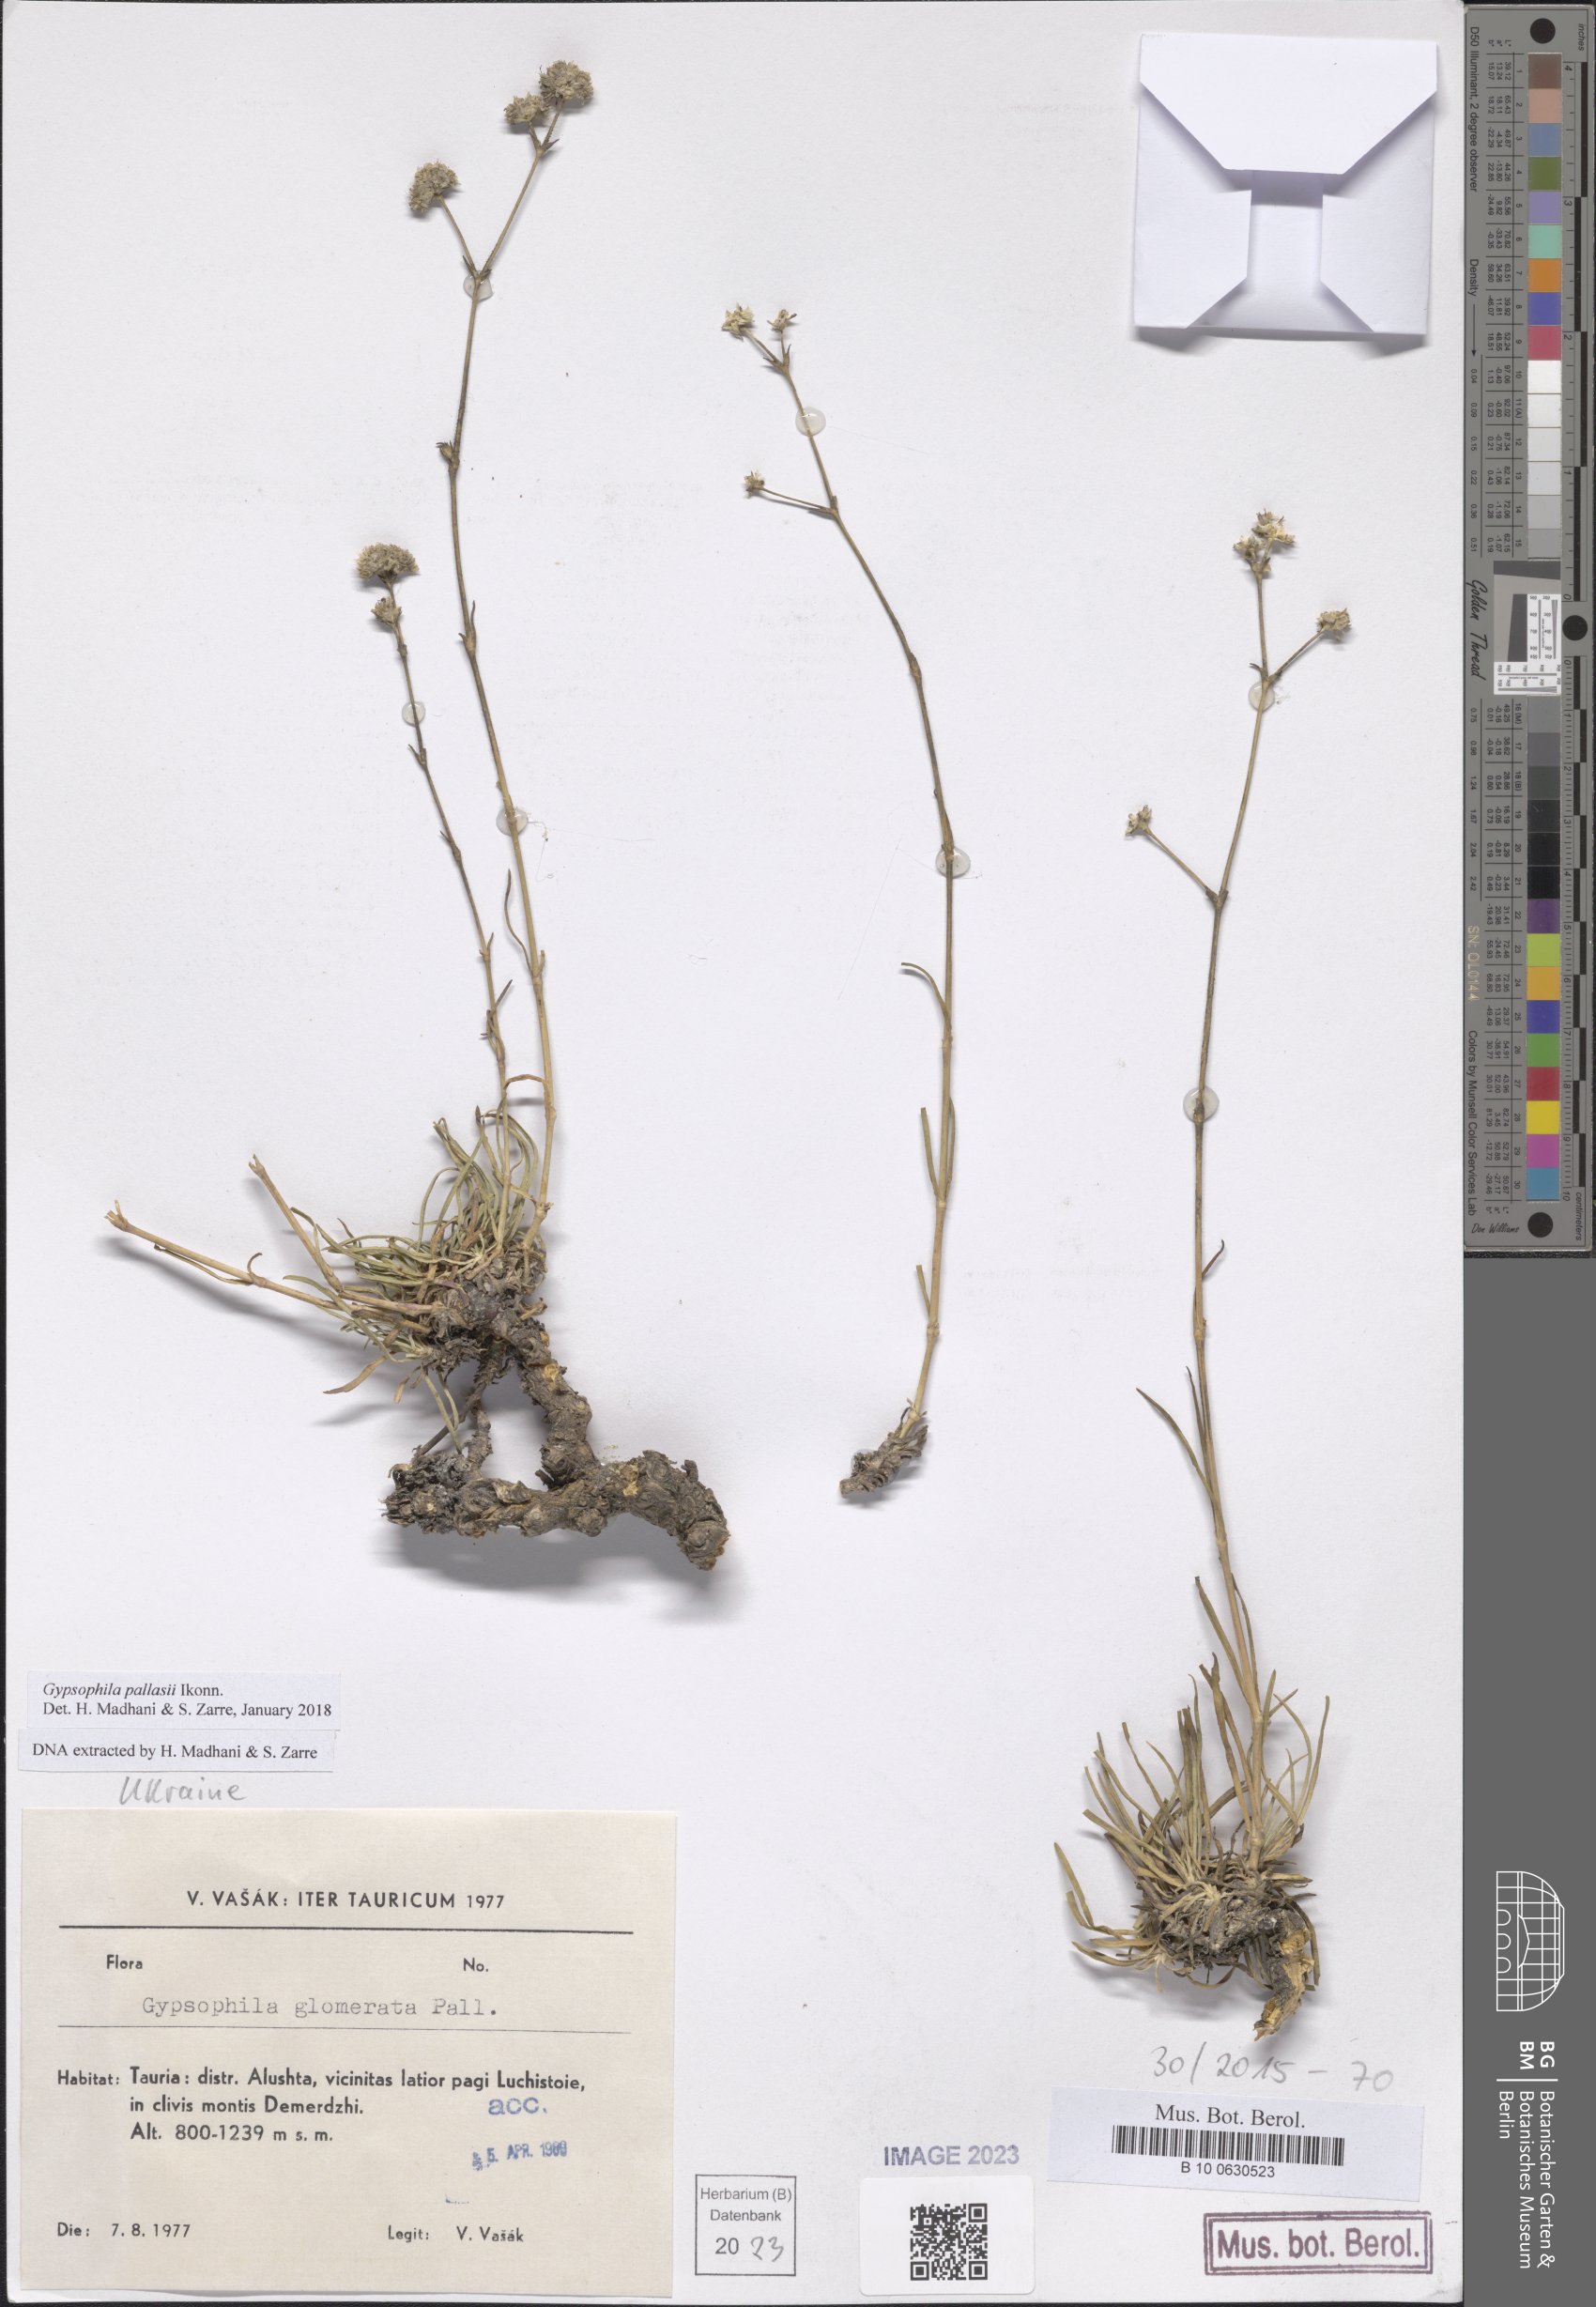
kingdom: Plantae
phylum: Tracheophyta
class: Magnoliopsida
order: Caryophyllales
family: Caryophyllaceae
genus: Gypsophila
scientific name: Gypsophila pallasii
